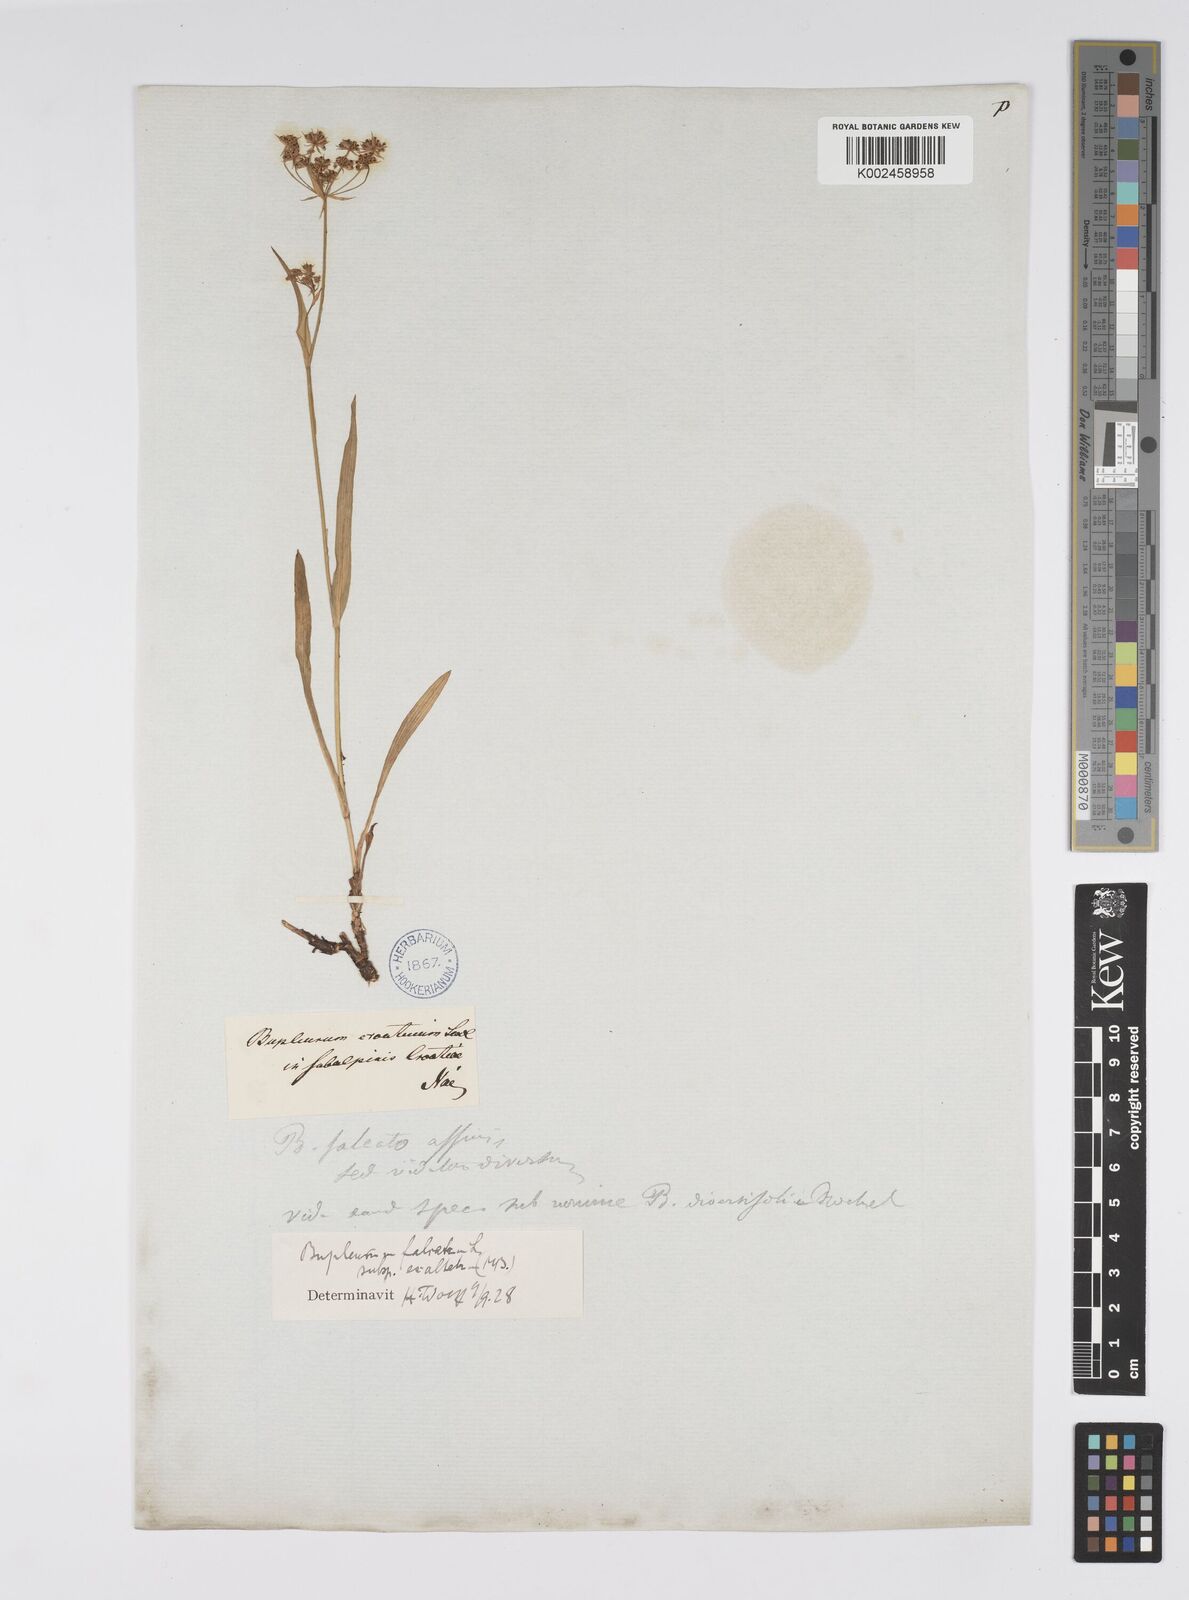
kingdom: Plantae
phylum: Tracheophyta
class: Magnoliopsida
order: Apiales
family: Apiaceae
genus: Bupleurum
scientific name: Bupleurum falcatum
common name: Sickle-leaved hare's-ear
